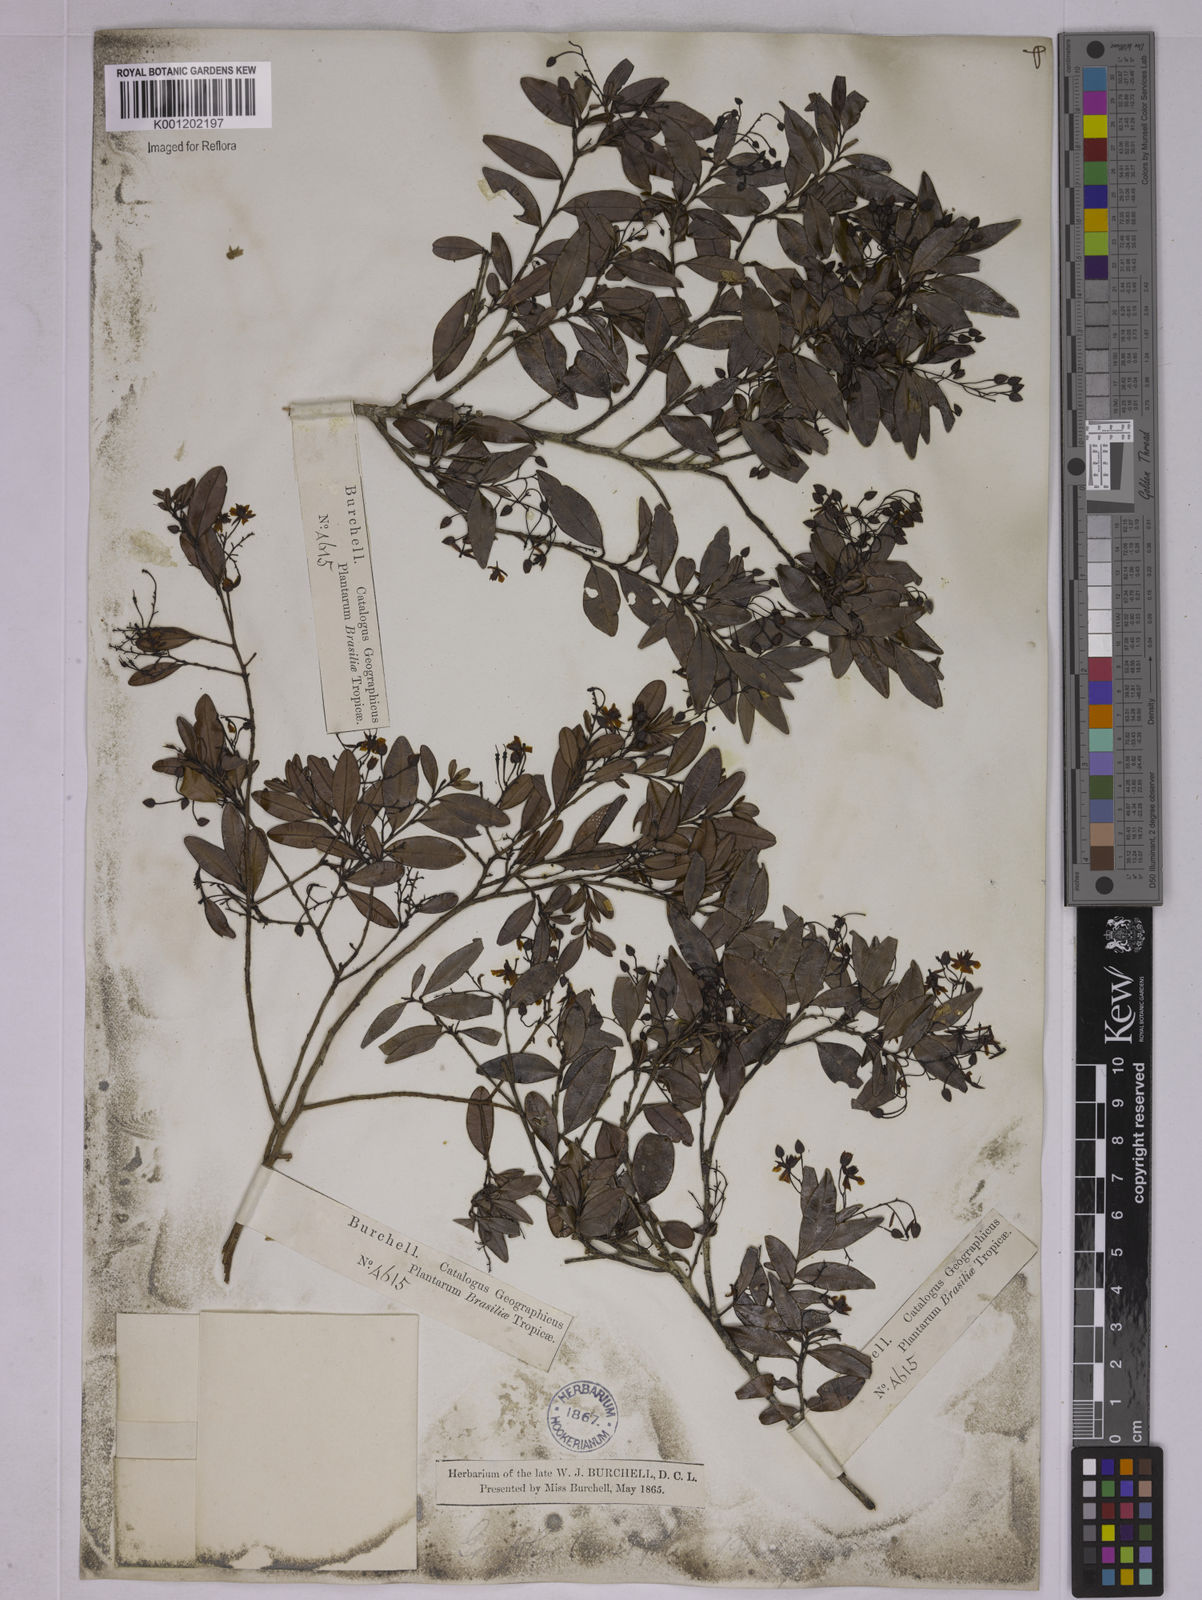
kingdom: Plantae
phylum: Tracheophyta
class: Magnoliopsida
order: Malpighiales
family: Ochnaceae
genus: Ouratea
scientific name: Ouratea
